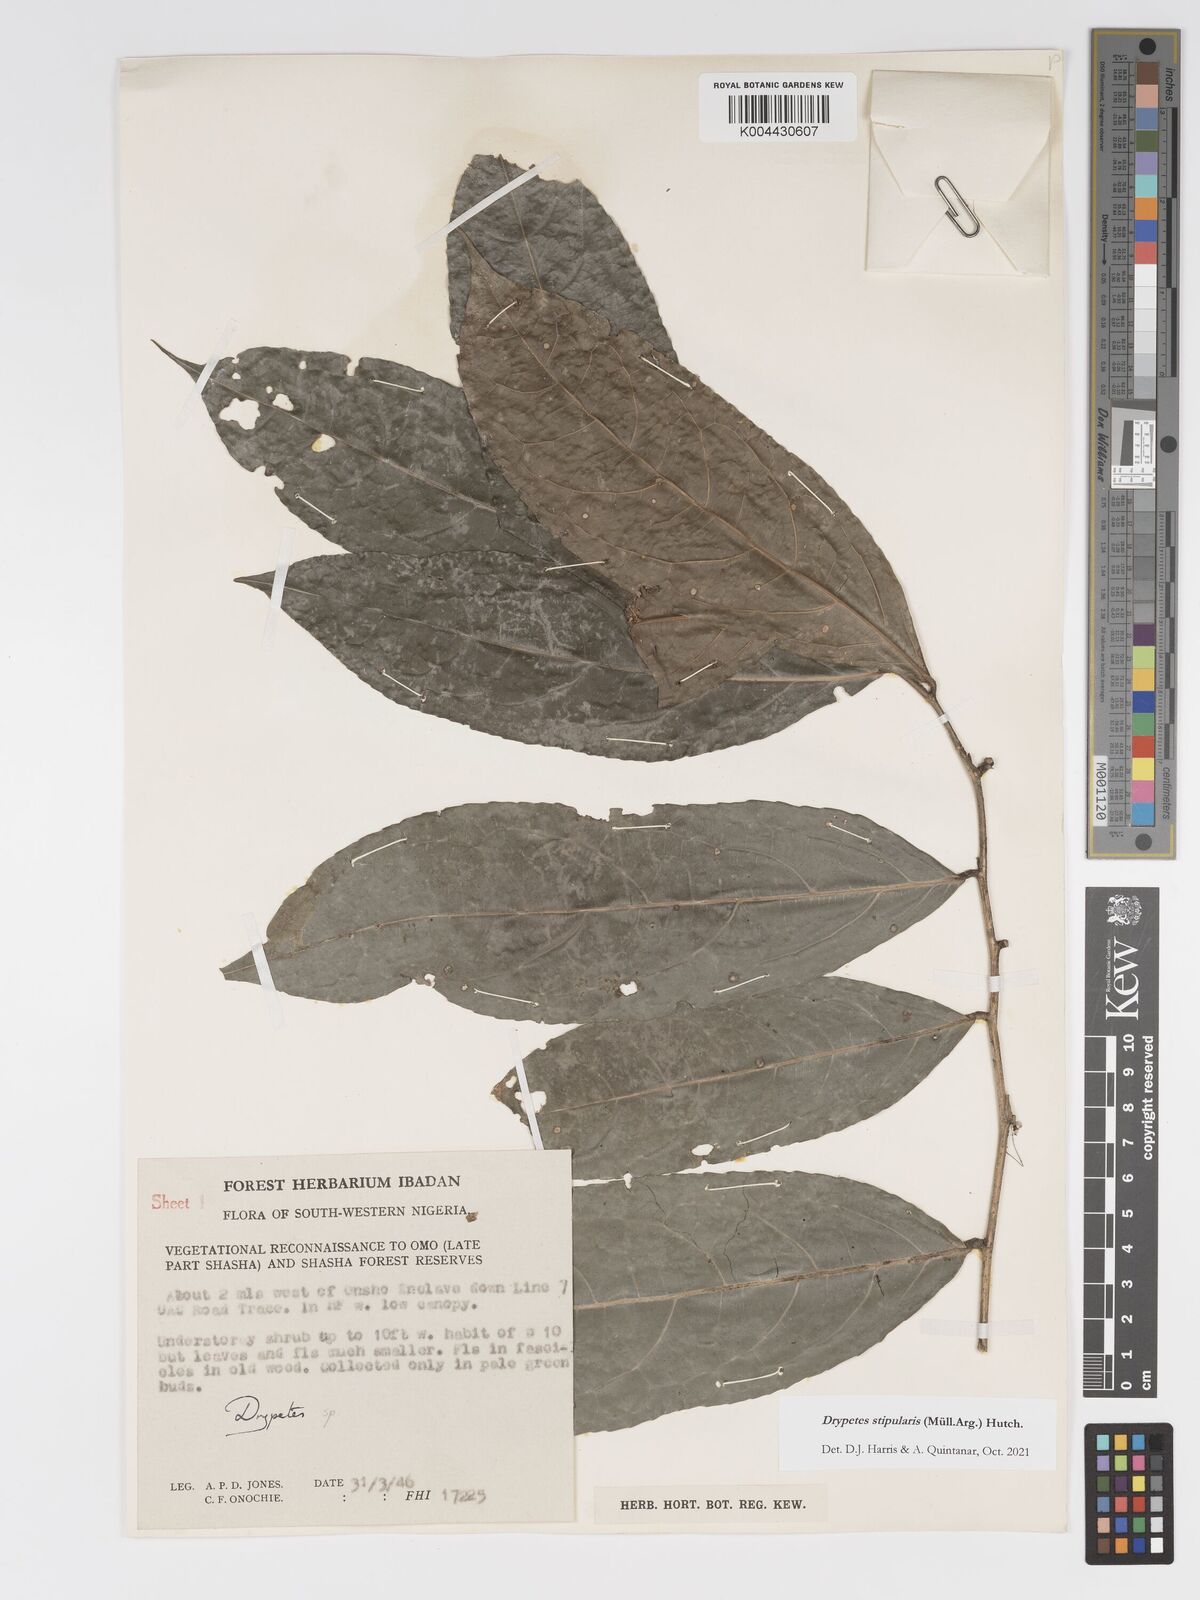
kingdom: Plantae
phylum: Tracheophyta
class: Magnoliopsida
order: Malpighiales
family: Putranjivaceae
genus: Drypetes
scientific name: Drypetes stipularis
